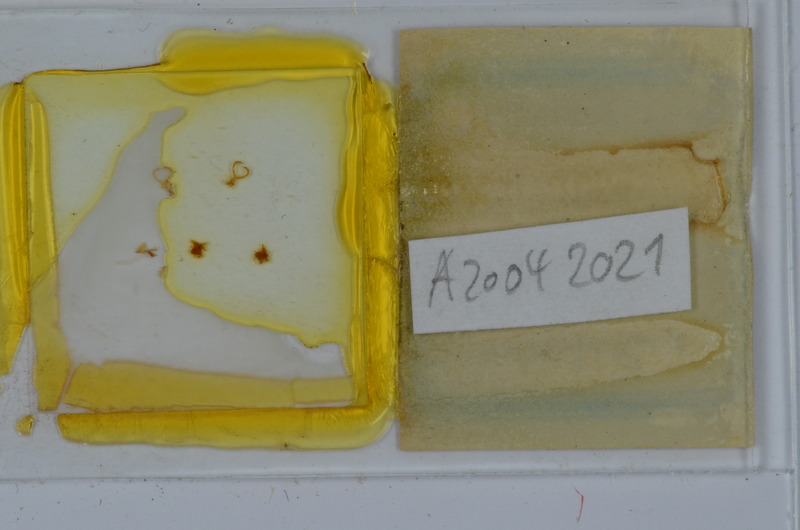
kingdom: Animalia
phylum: Arthropoda
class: Diplopoda
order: Julida
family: Julidae
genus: Unciger
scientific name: Unciger foetidus
